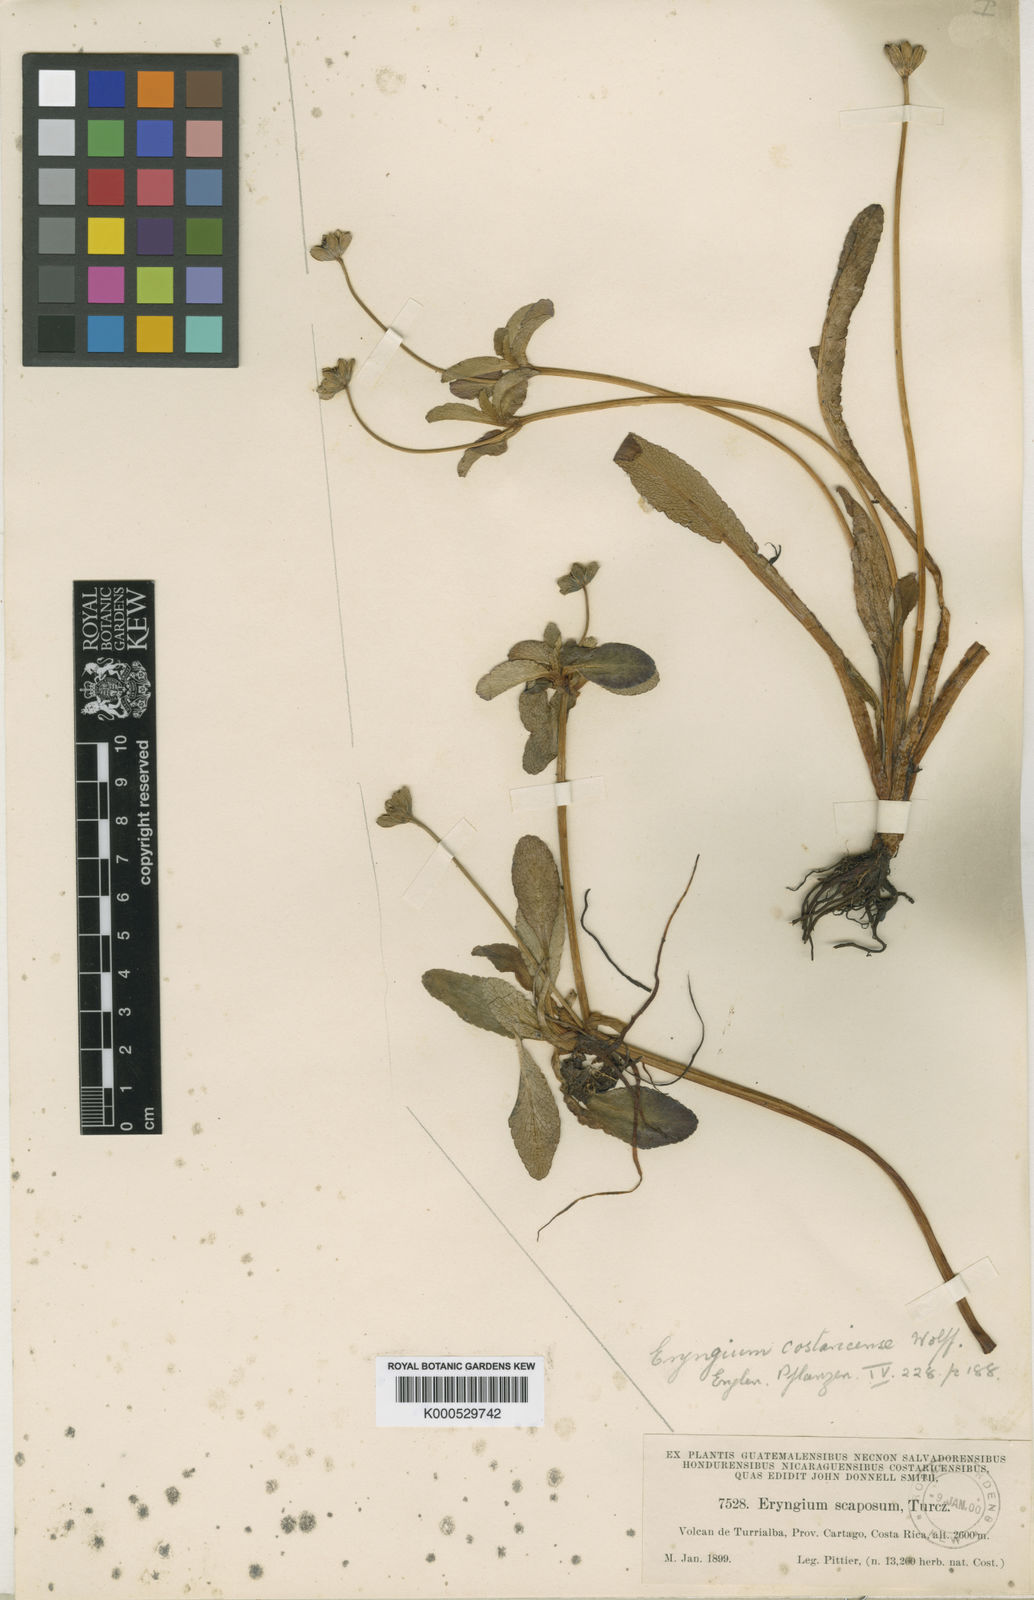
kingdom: Plantae
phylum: Tracheophyta
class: Magnoliopsida
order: Apiales
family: Apiaceae
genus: Eryngium
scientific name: Eryngium scaposum
